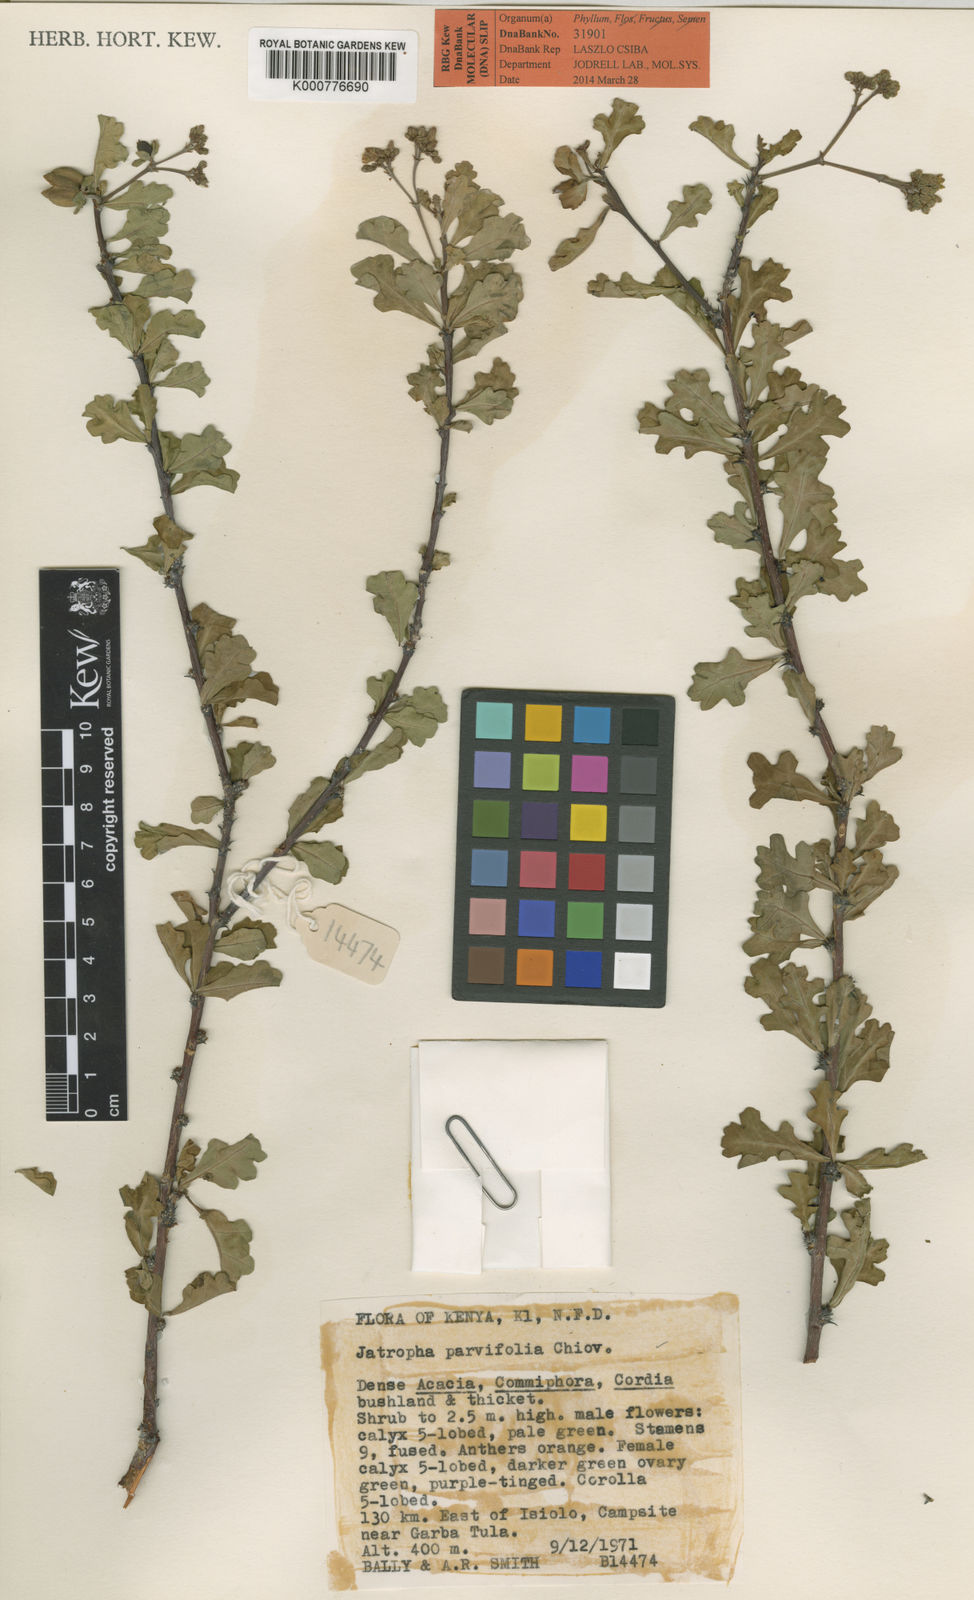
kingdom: Plantae
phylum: Tracheophyta
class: Magnoliopsida
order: Malpighiales
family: Euphorbiaceae
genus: Jatropha
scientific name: Jatropha rivae
